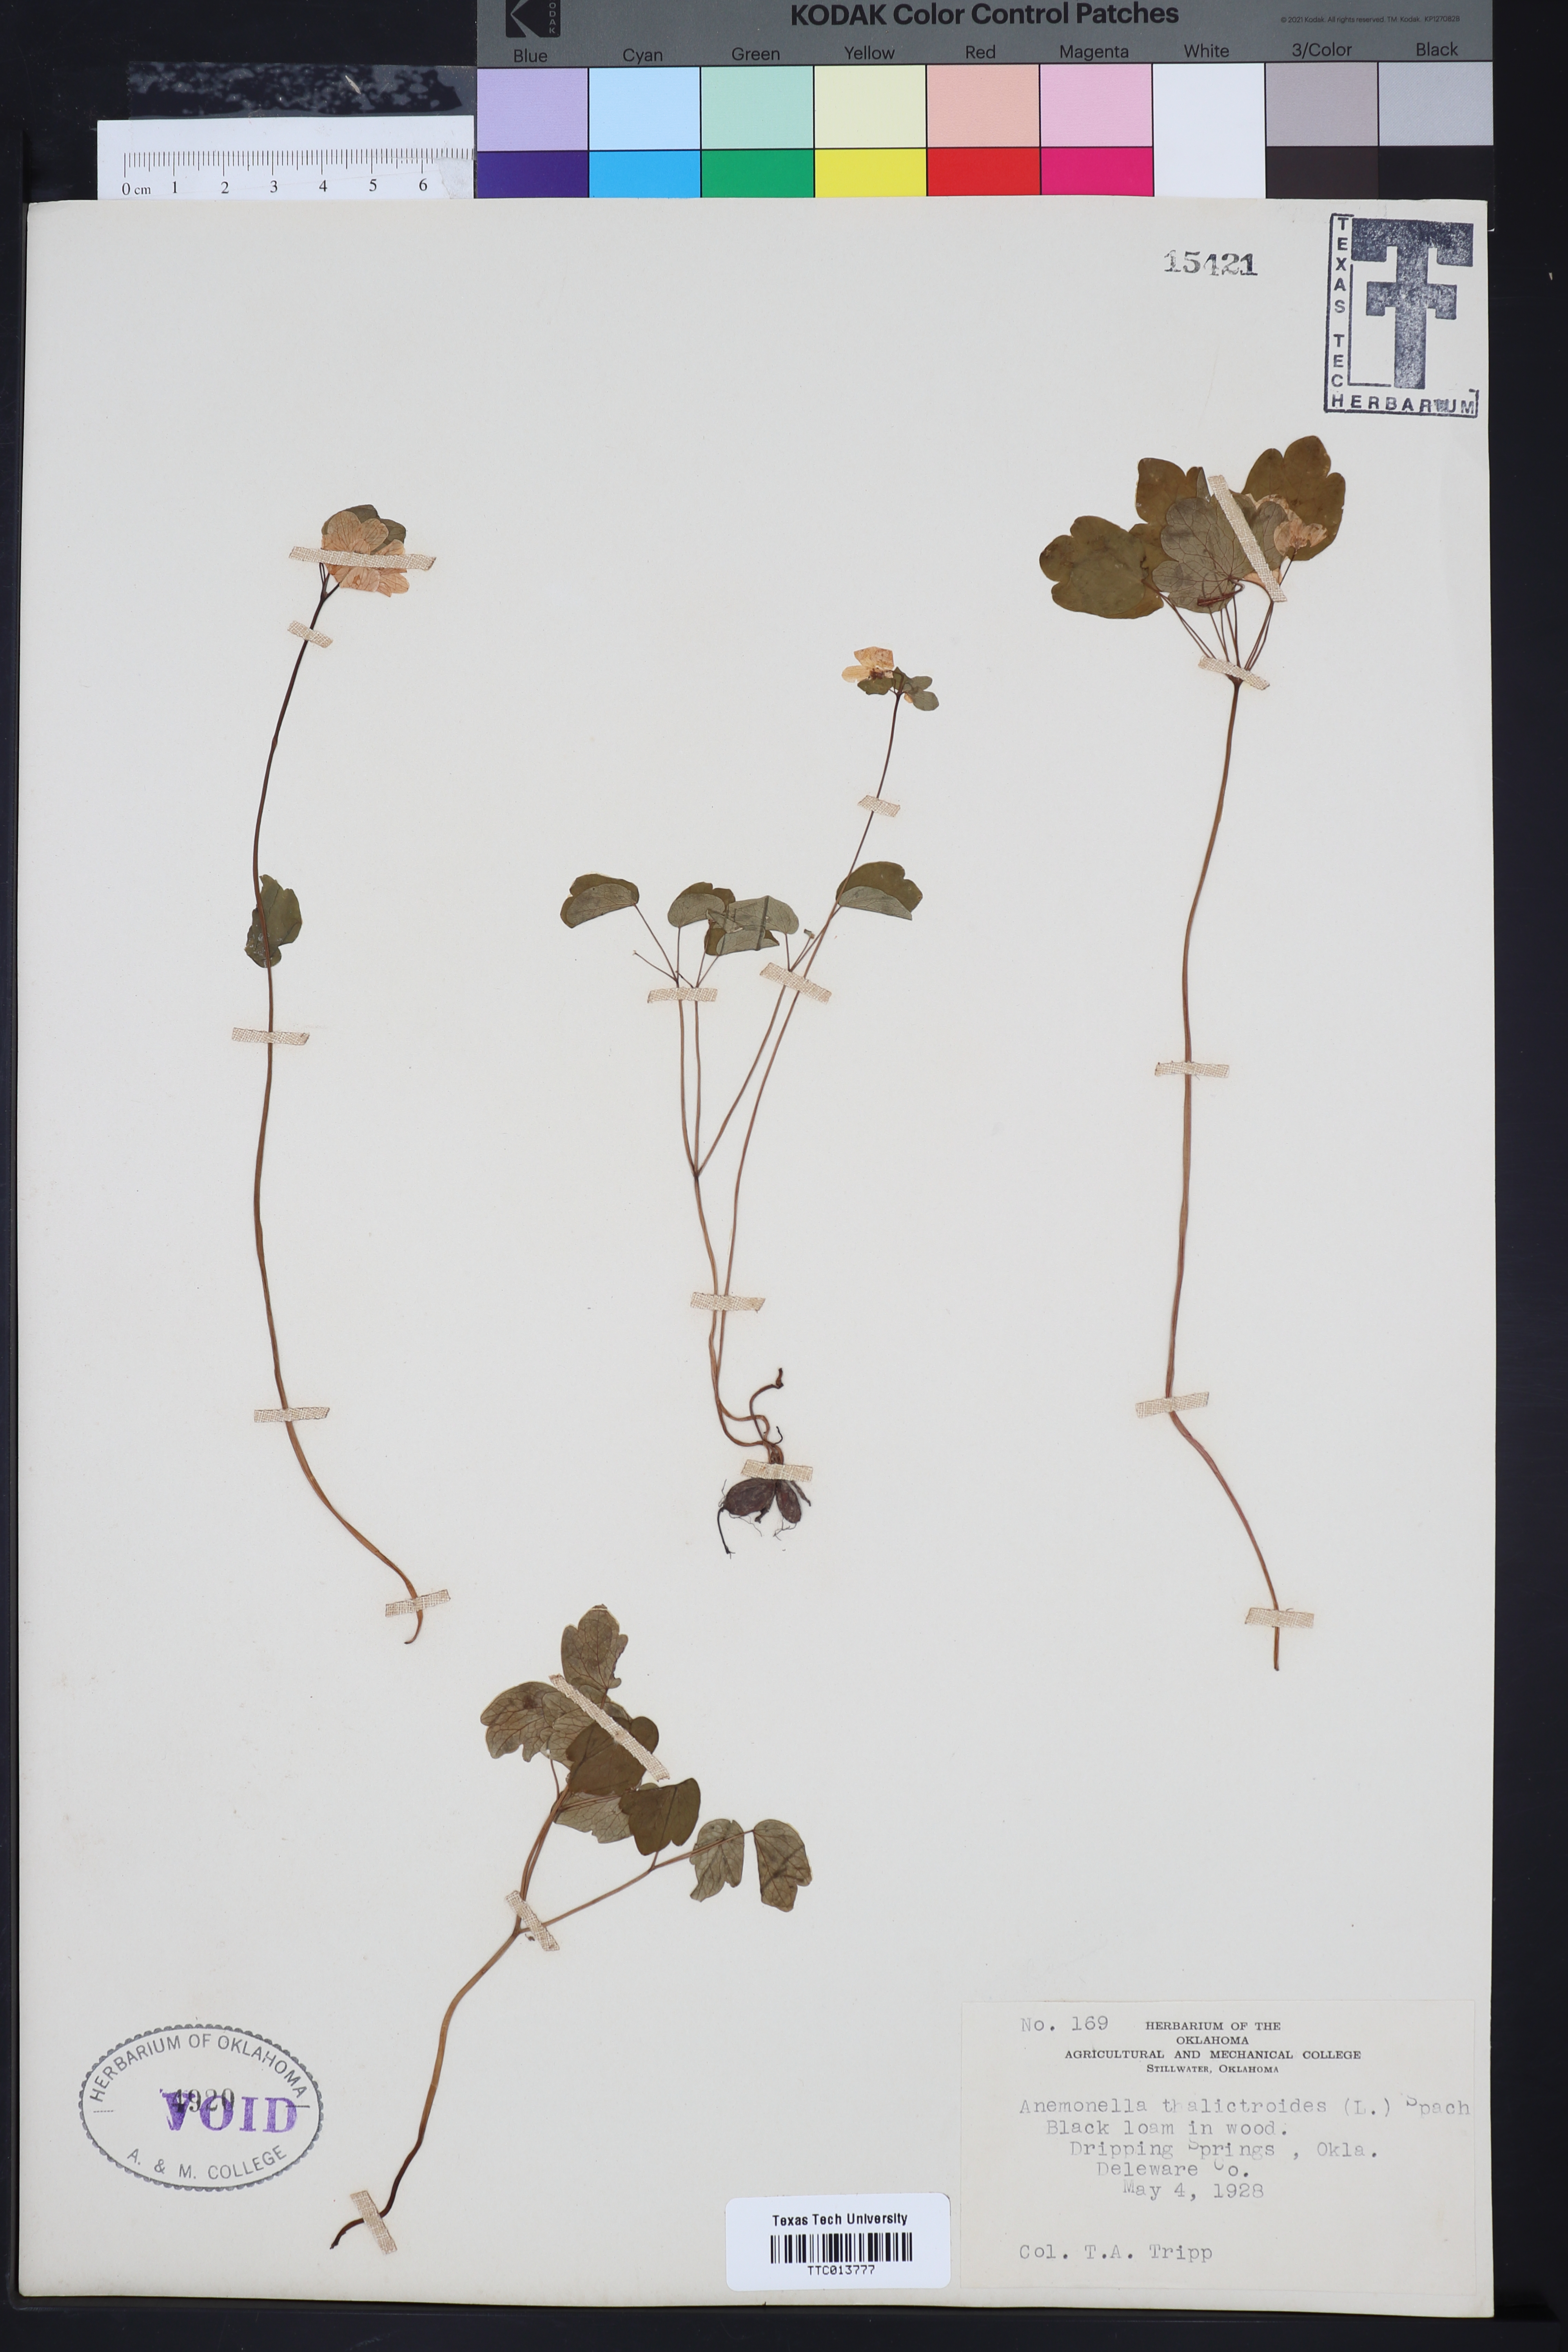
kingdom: Plantae
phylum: Tracheophyta
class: Magnoliopsida
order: Ranunculales
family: Ranunculaceae
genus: Thalictrum
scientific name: Thalictrum thalictroides
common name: Rue-anemone
